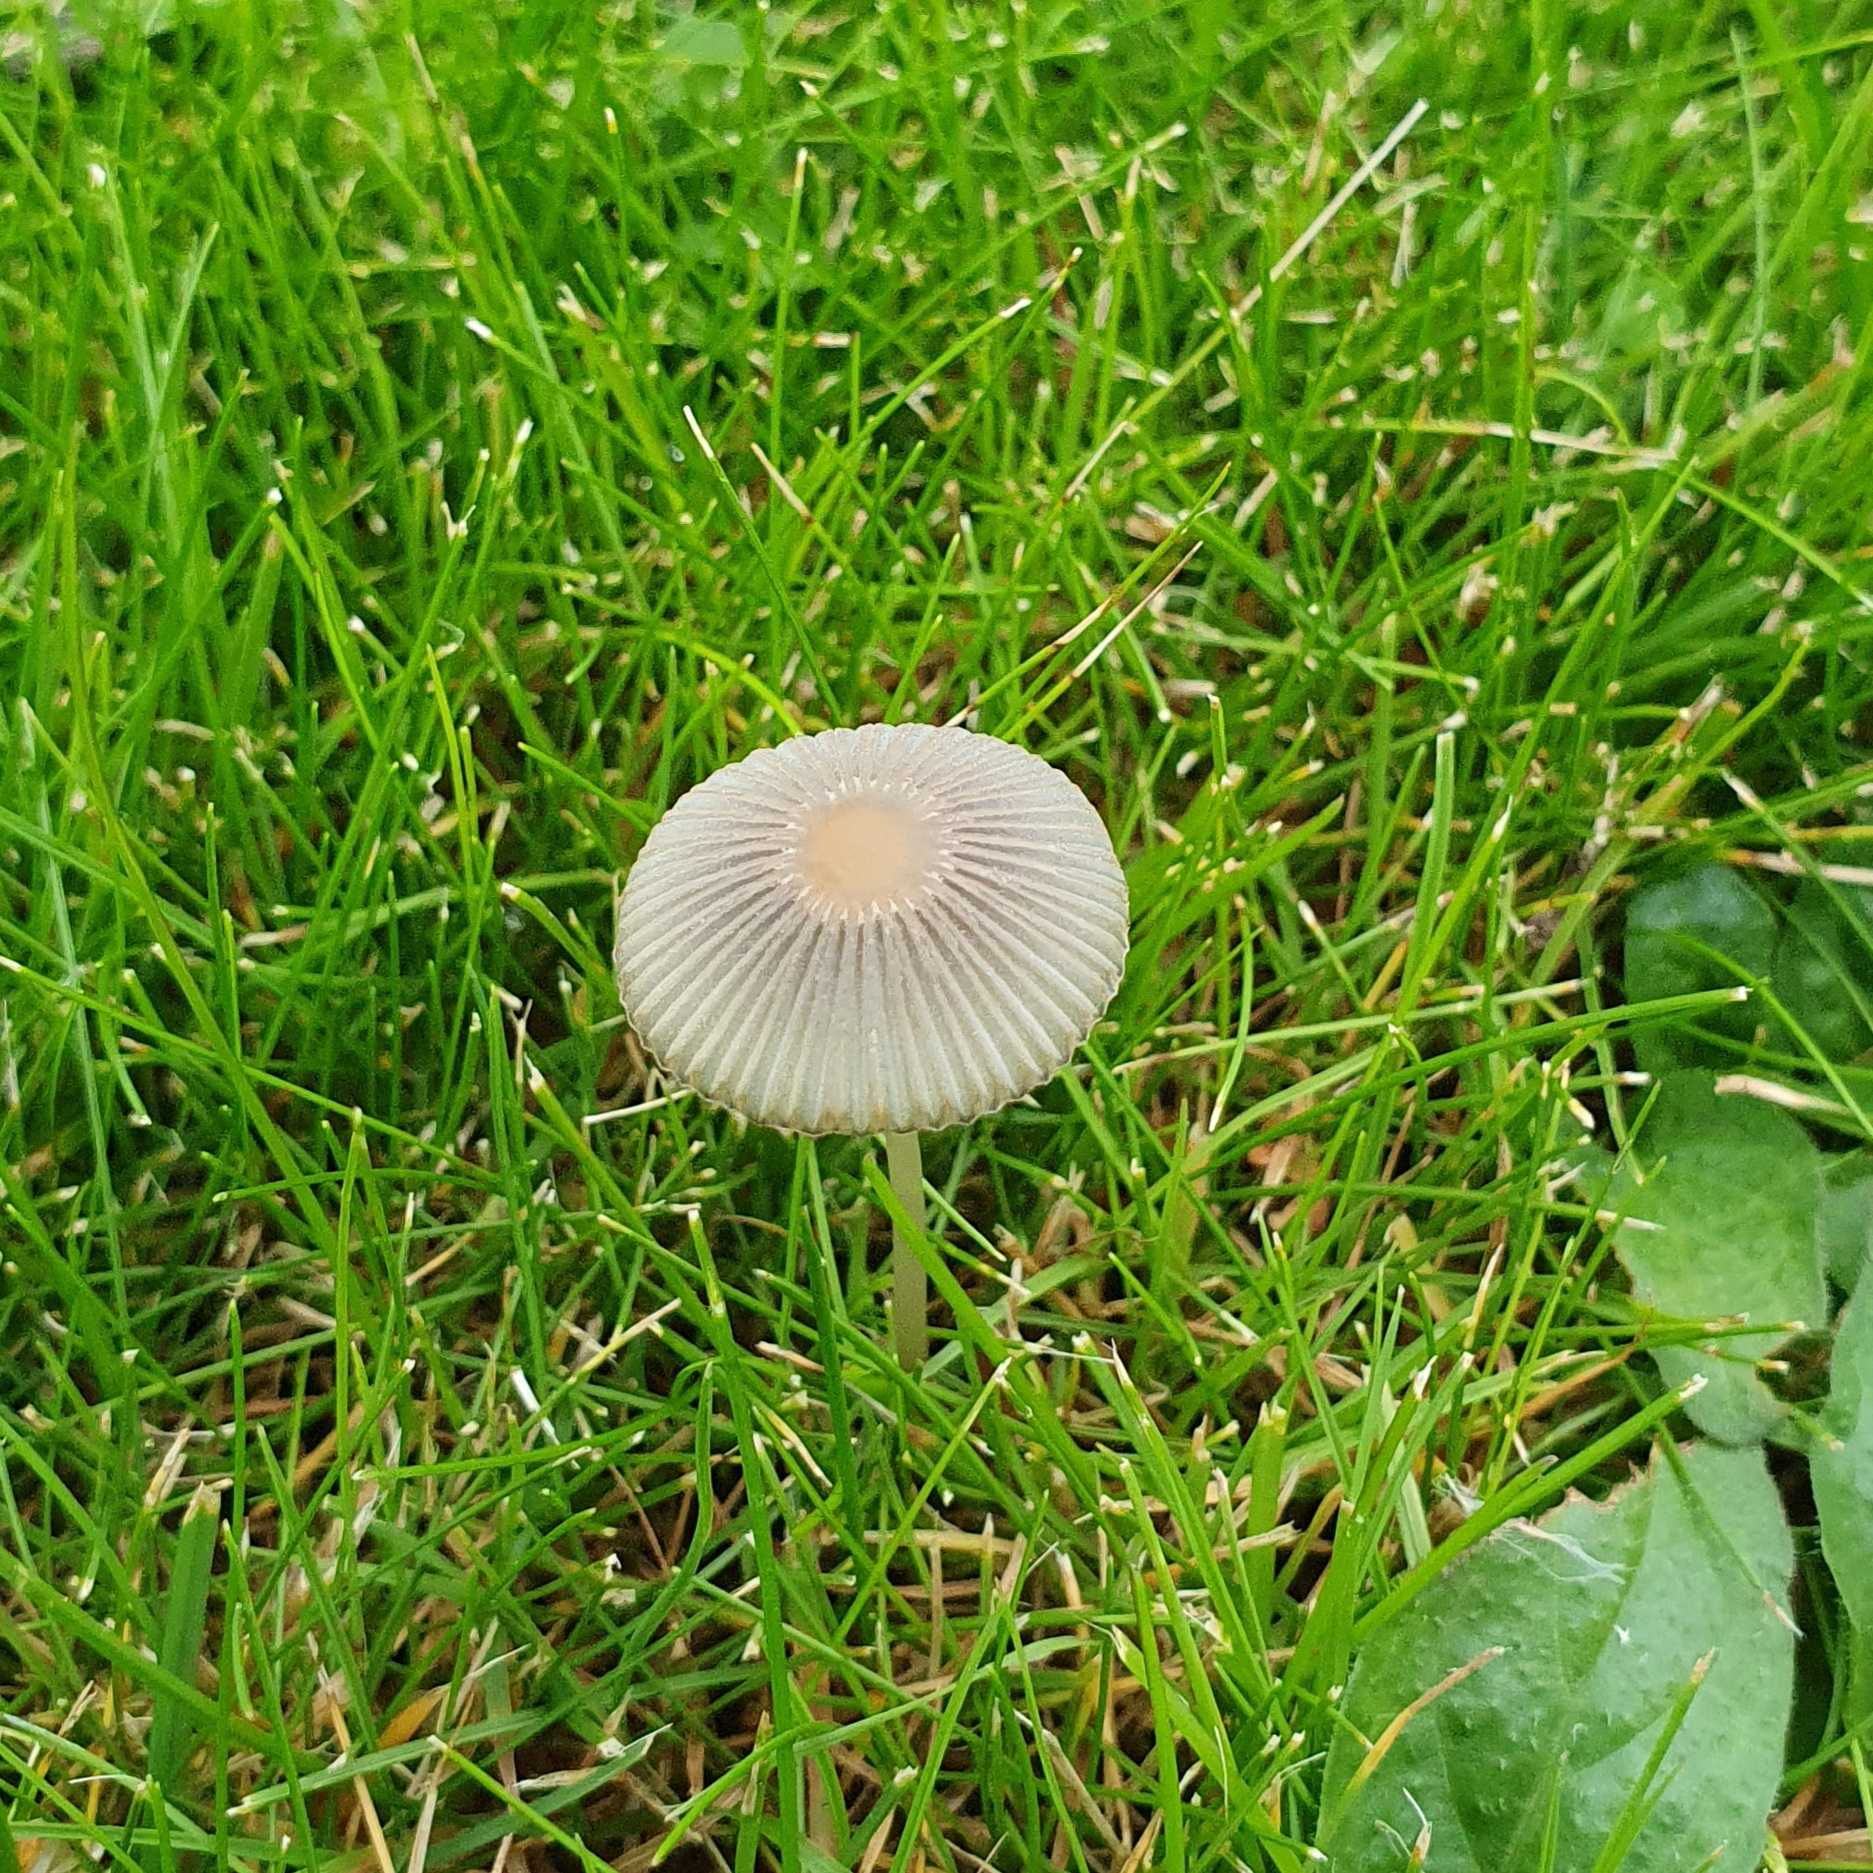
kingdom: Fungi
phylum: Basidiomycota
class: Agaricomycetes
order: Agaricales
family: Psathyrellaceae
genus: Parasola
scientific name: Parasola plicatilis
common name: plæne-hjulhat
